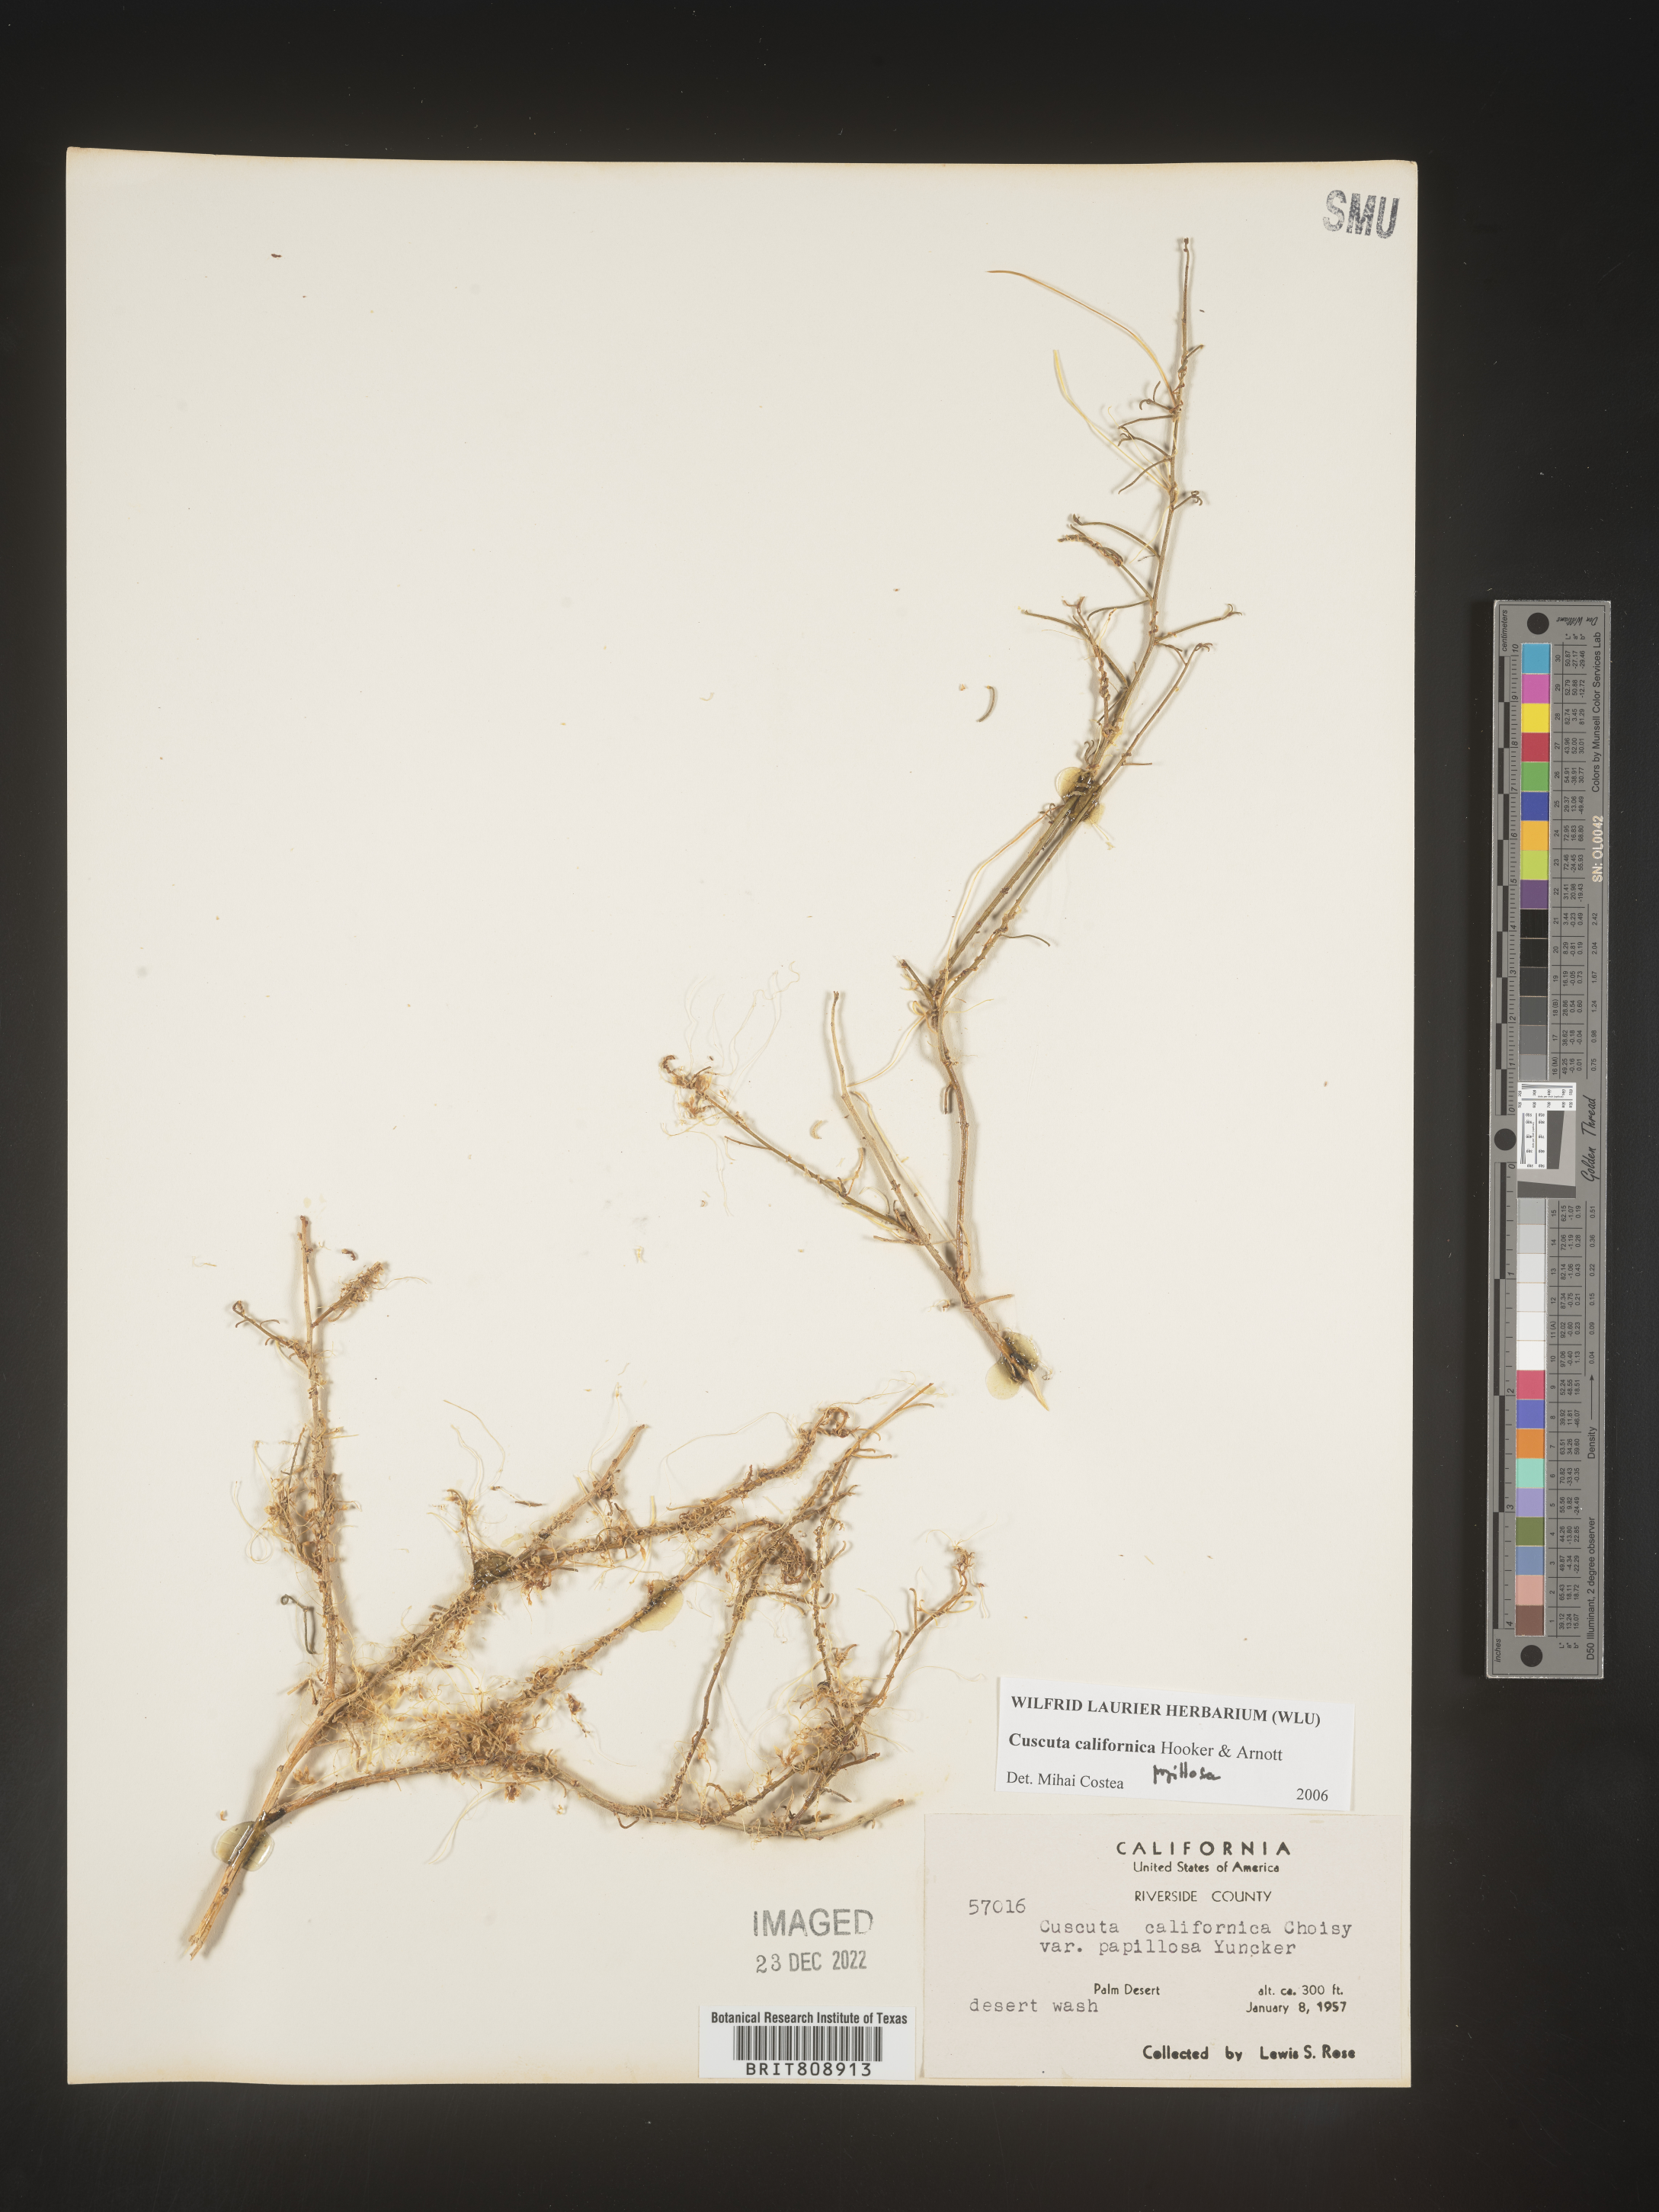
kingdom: Plantae
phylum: Tracheophyta
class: Magnoliopsida
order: Solanales
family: Convolvulaceae
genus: Cuscuta
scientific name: Cuscuta californica
